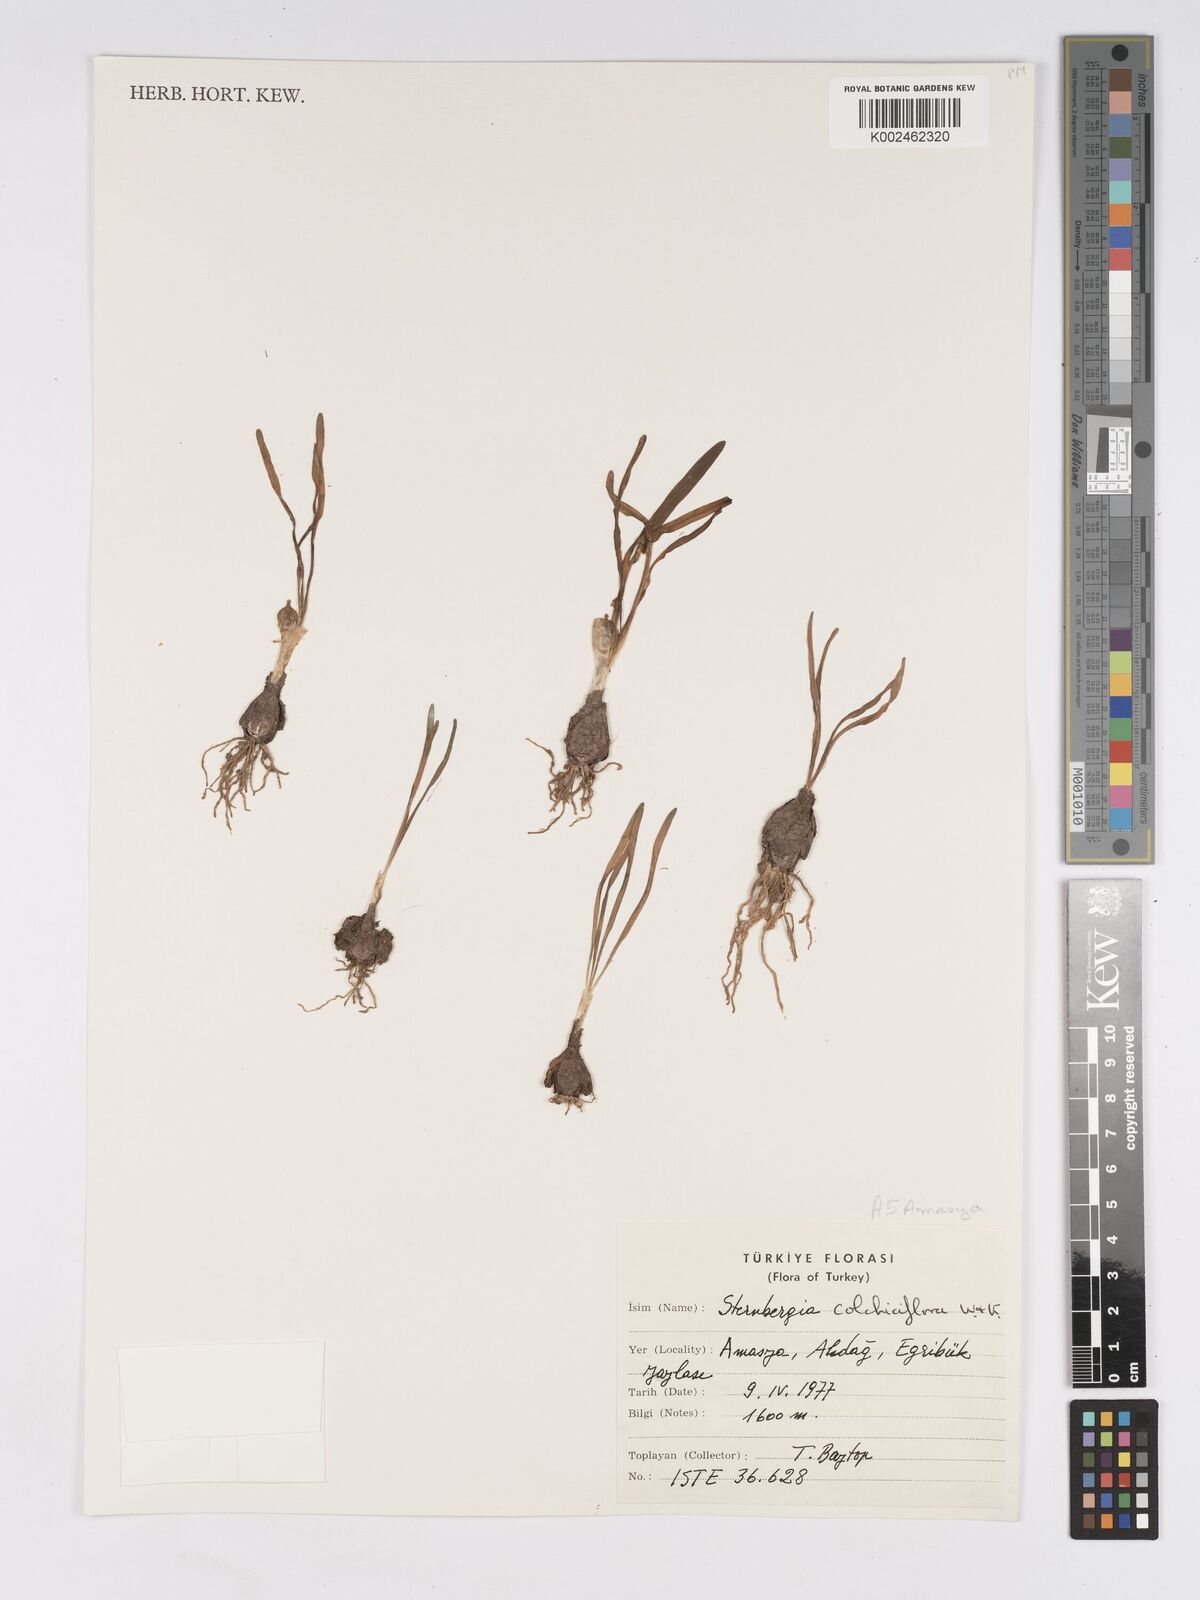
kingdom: Plantae
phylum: Tracheophyta
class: Liliopsida
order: Asparagales
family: Amaryllidaceae
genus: Sternbergia
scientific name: Sternbergia colchiciflora
